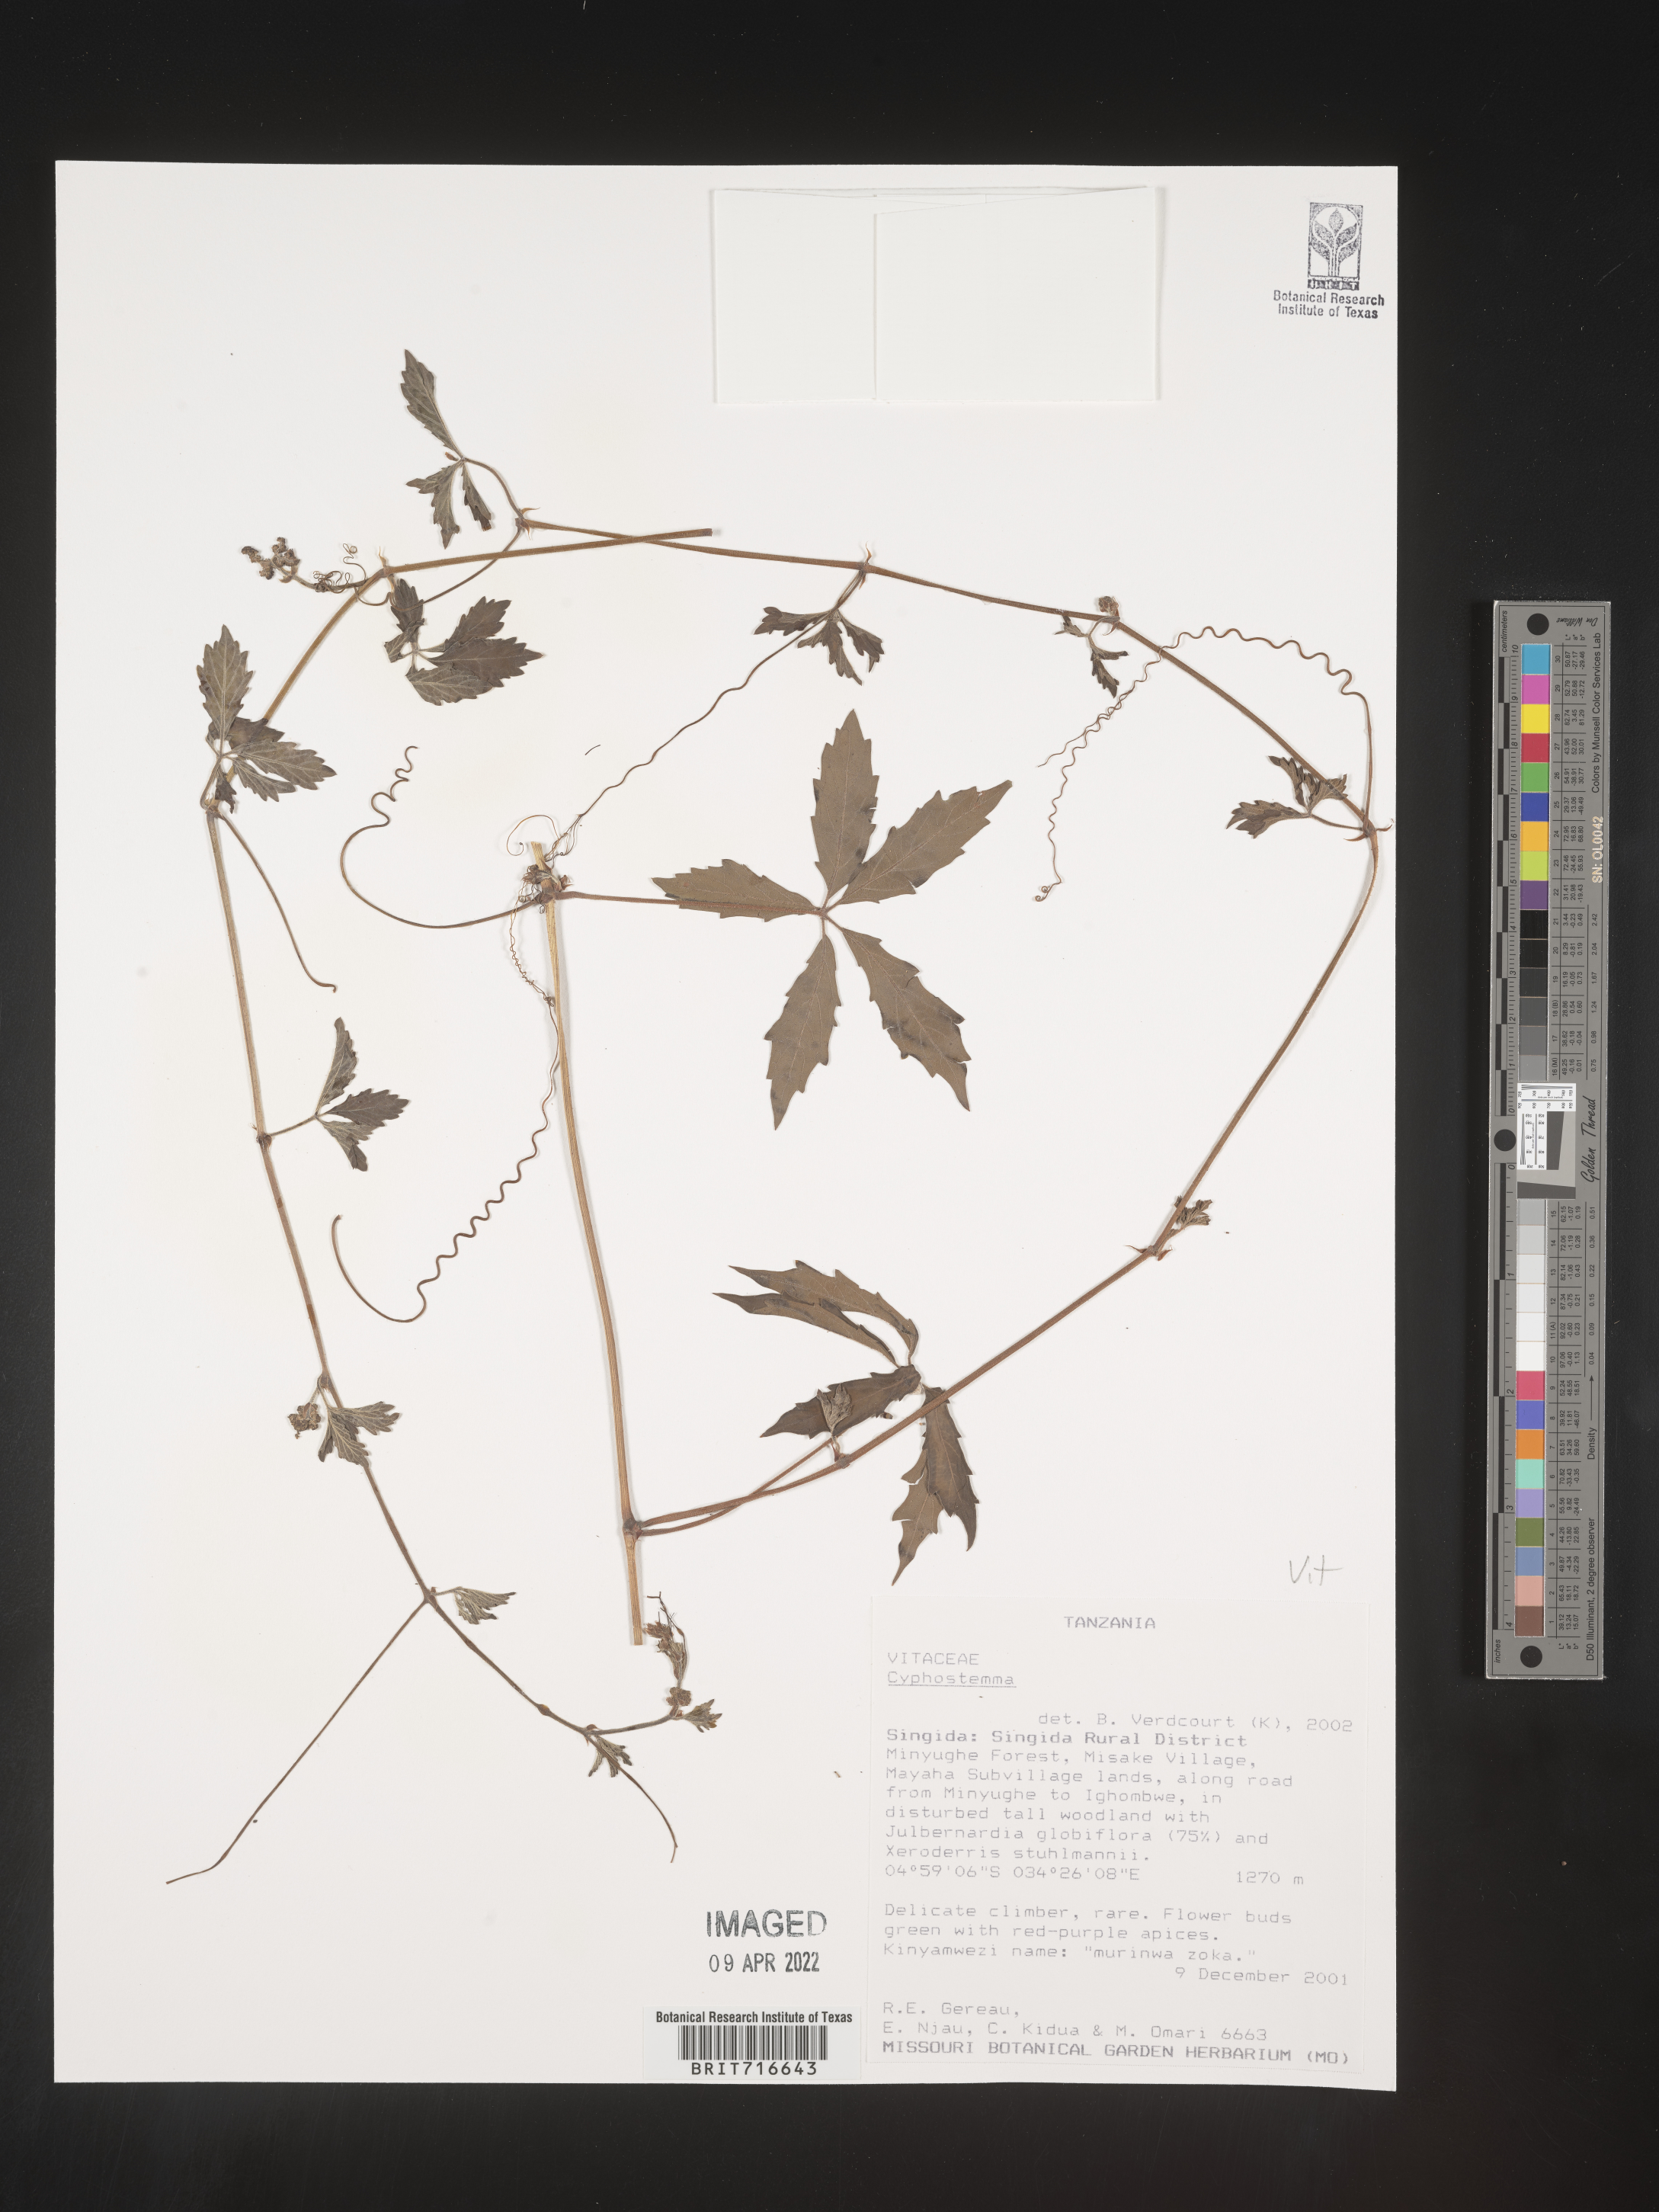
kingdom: Plantae
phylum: Tracheophyta
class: Magnoliopsida
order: Vitales
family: Vitaceae
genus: Cyphostemma
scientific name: Cyphostemma
